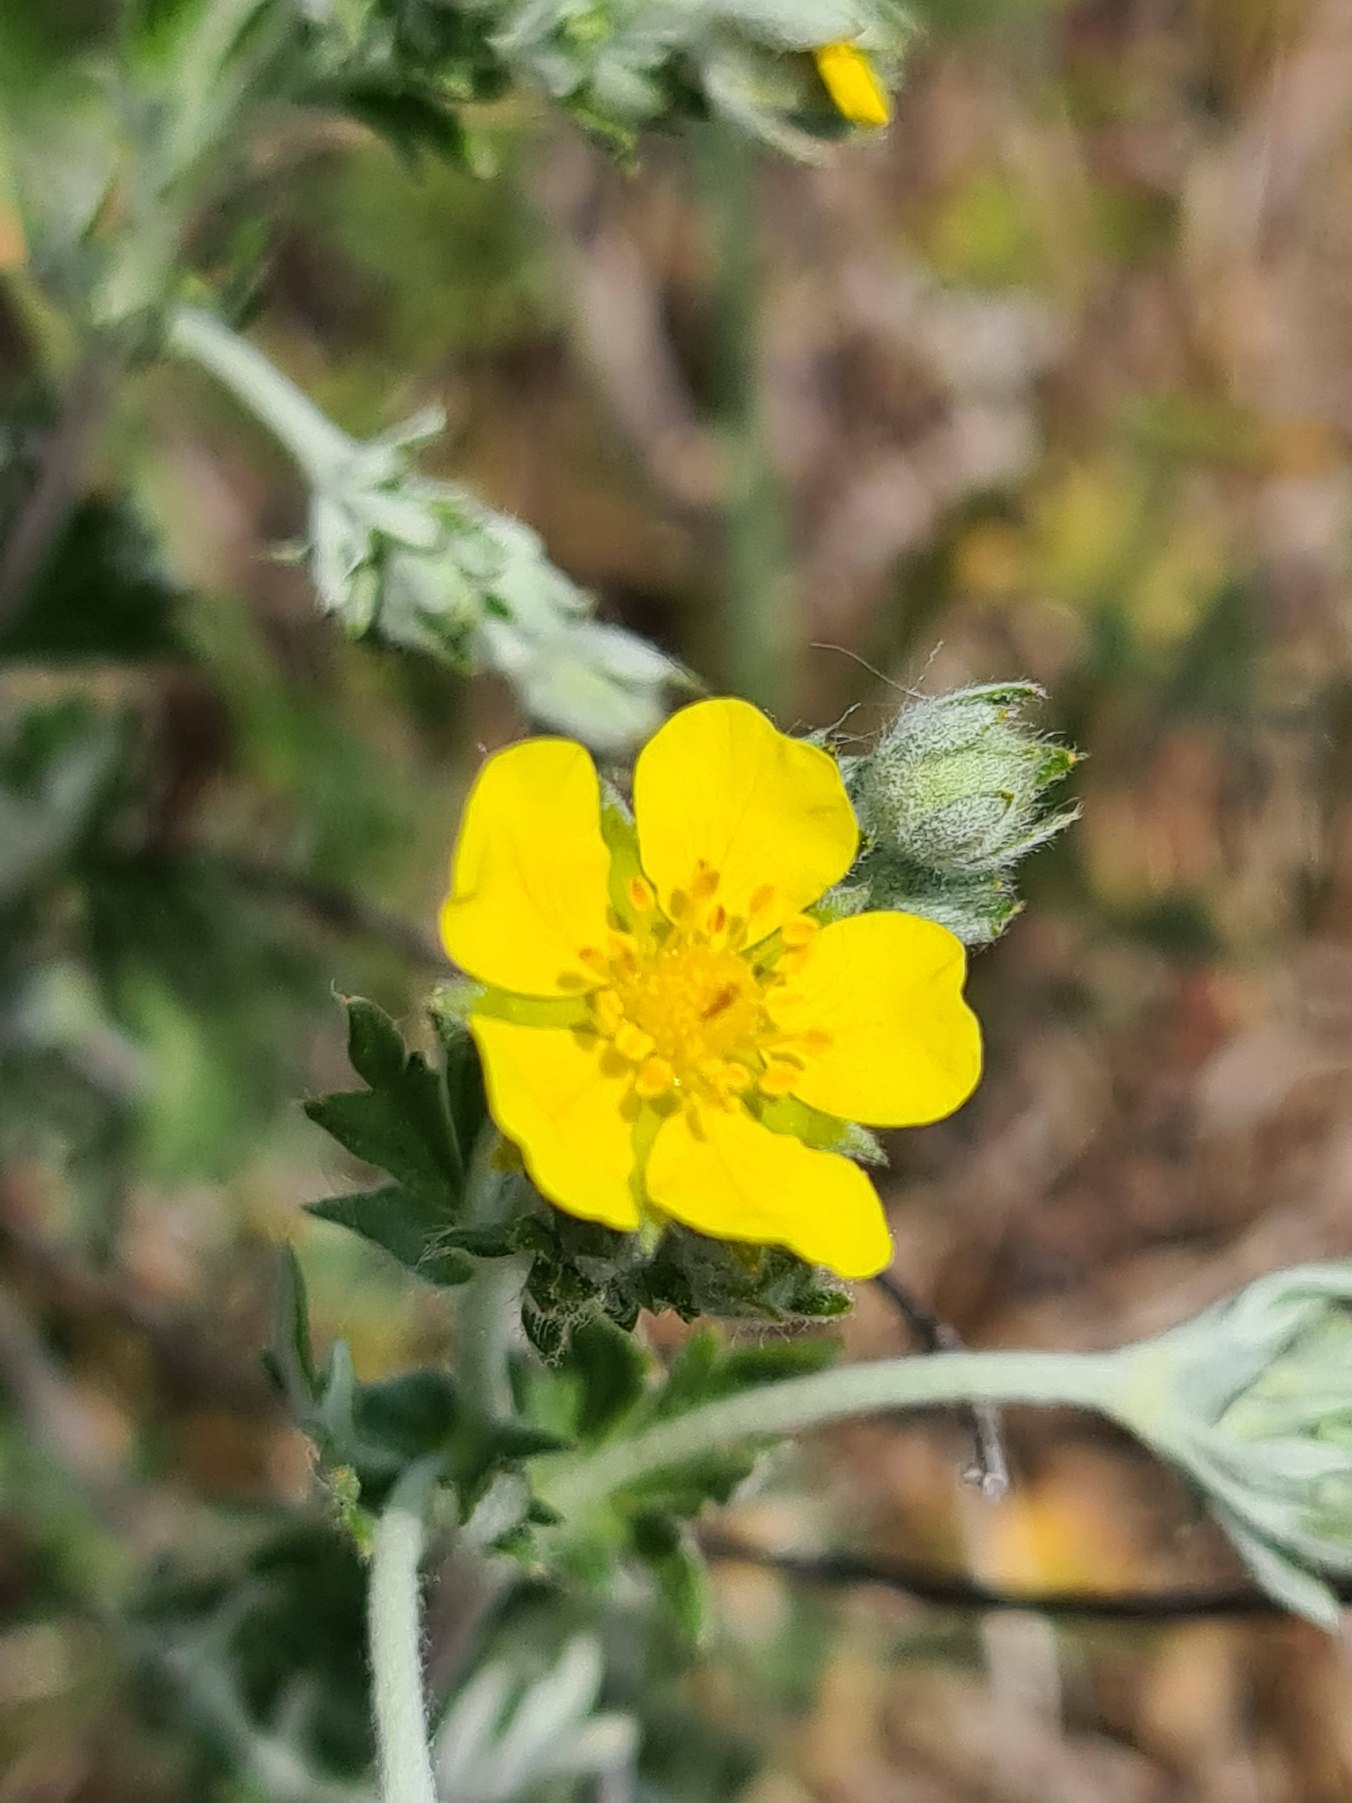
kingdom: Plantae
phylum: Tracheophyta
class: Magnoliopsida
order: Rosales
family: Rosaceae
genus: Potentilla
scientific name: Potentilla argentea
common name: Sølv-potentil
